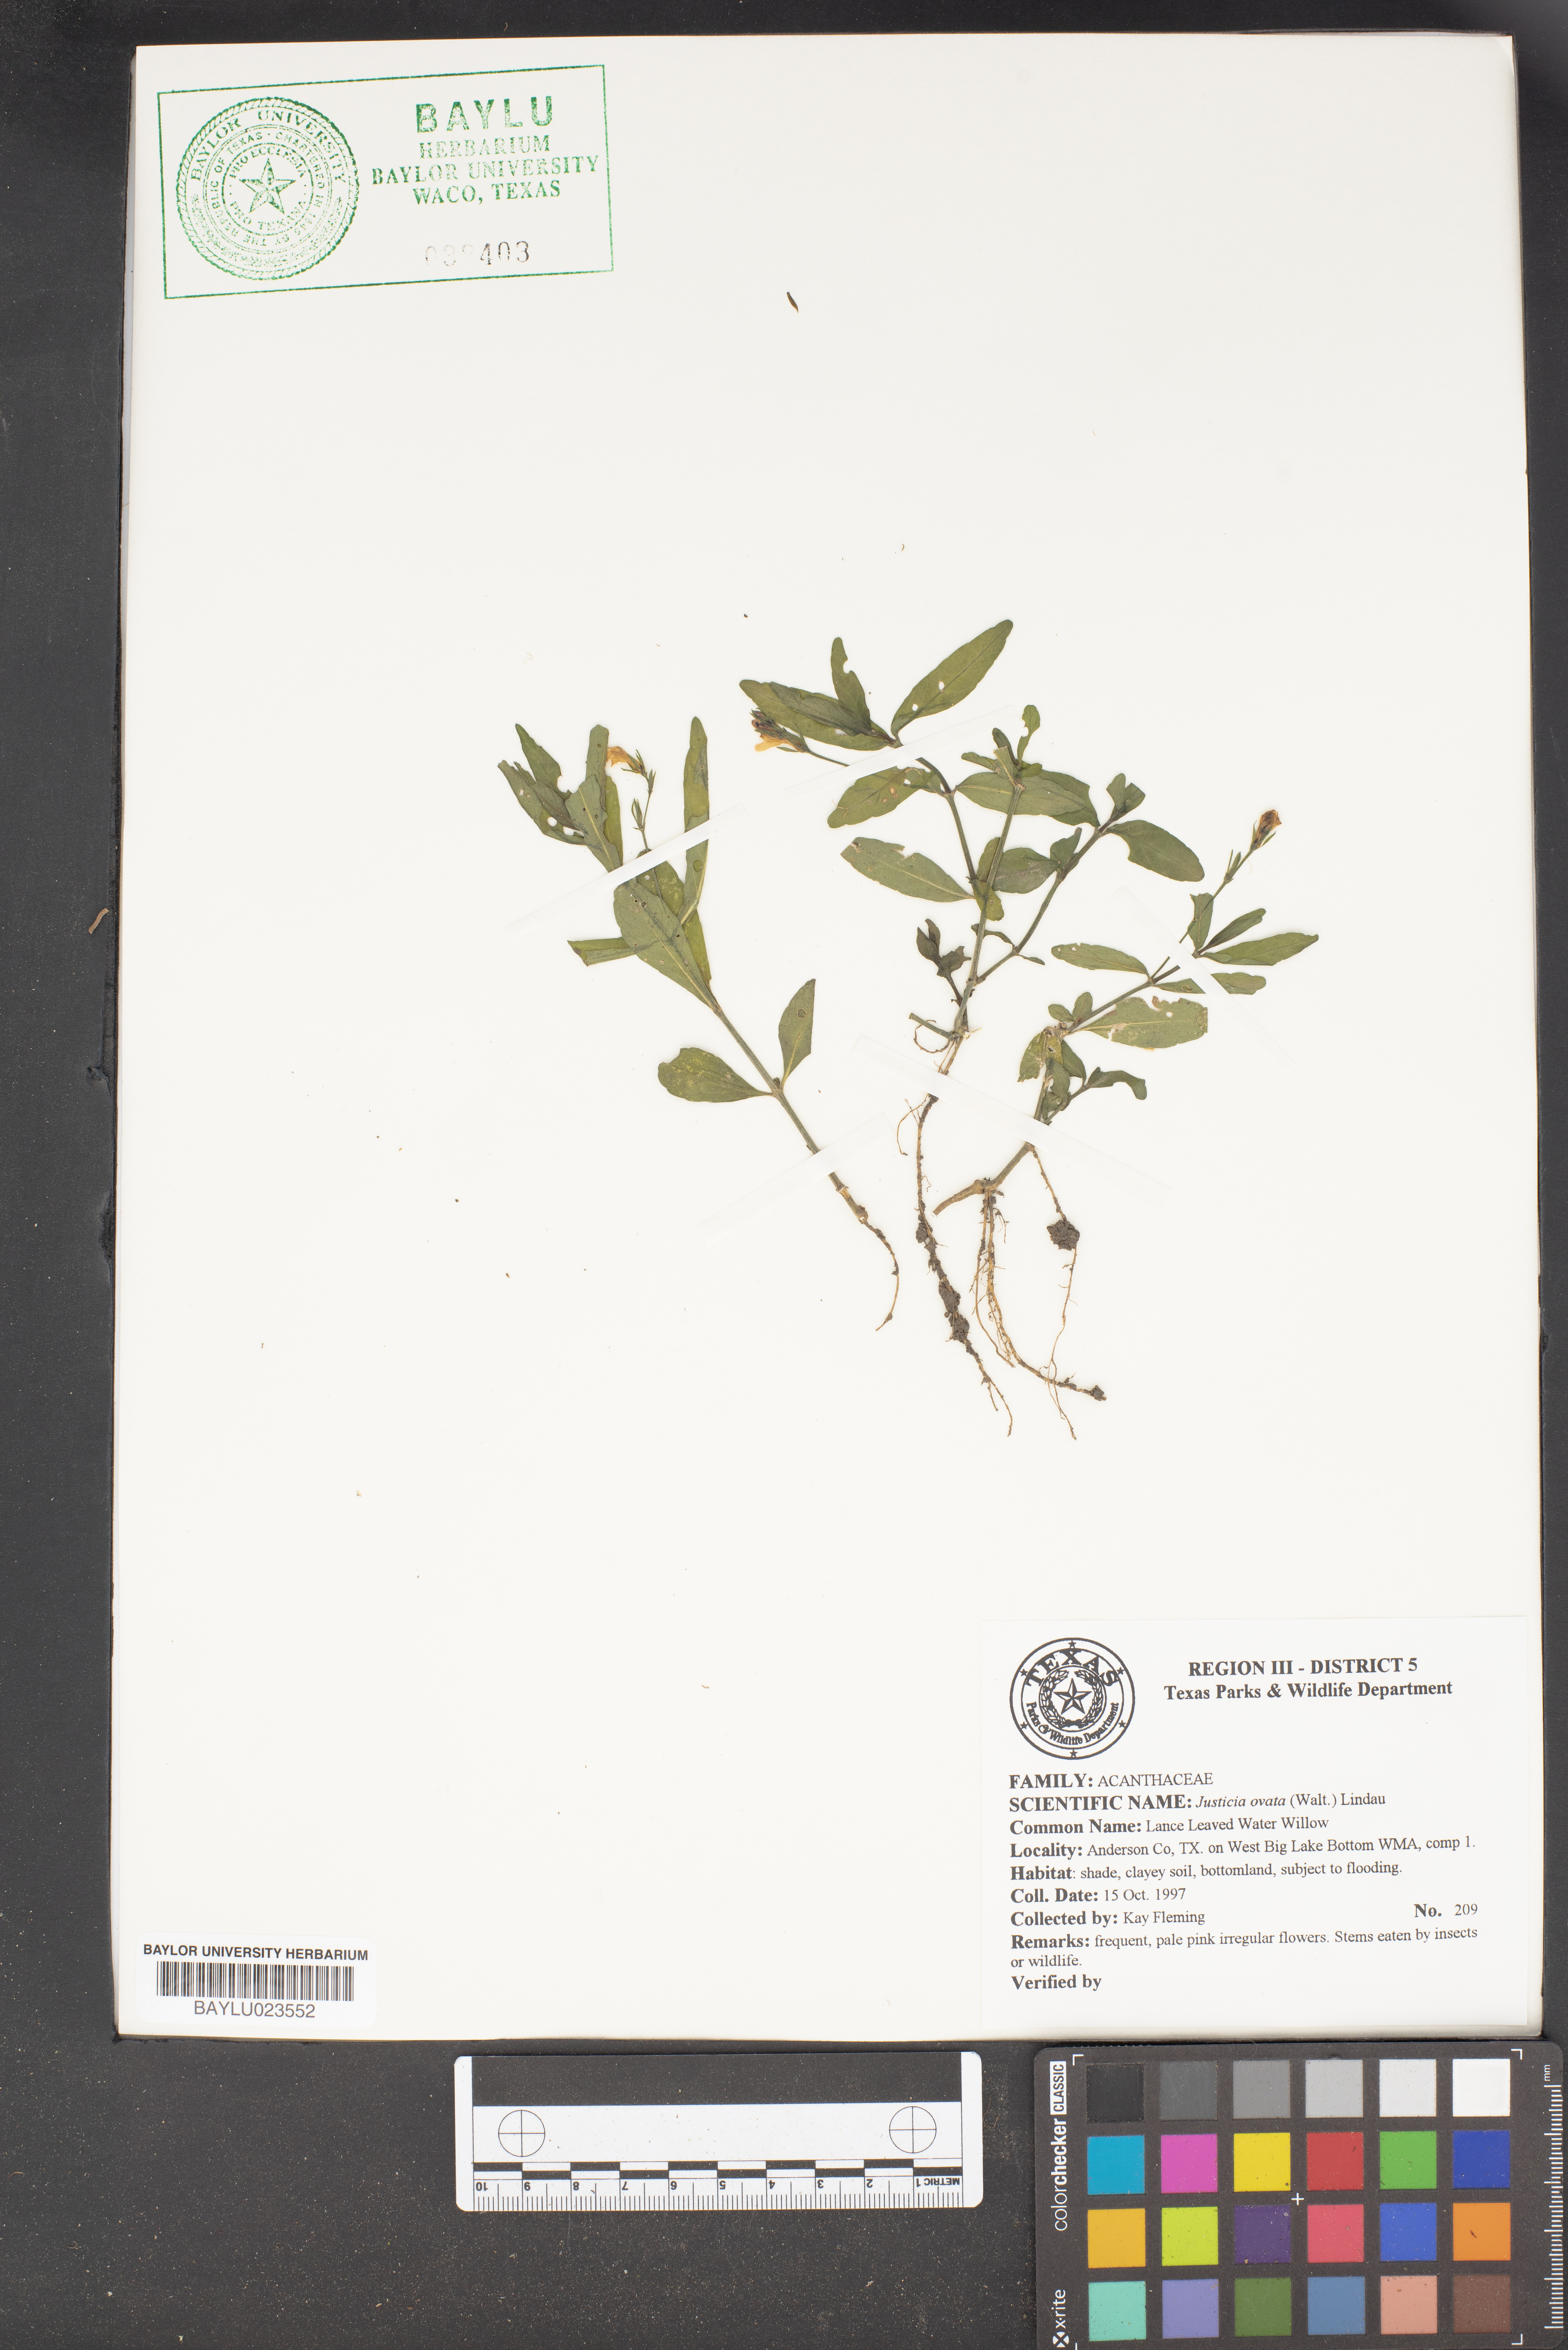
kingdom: Plantae
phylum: Tracheophyta
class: Magnoliopsida
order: Lamiales
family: Acanthaceae
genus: Dianthera
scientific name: Dianthera ovata
